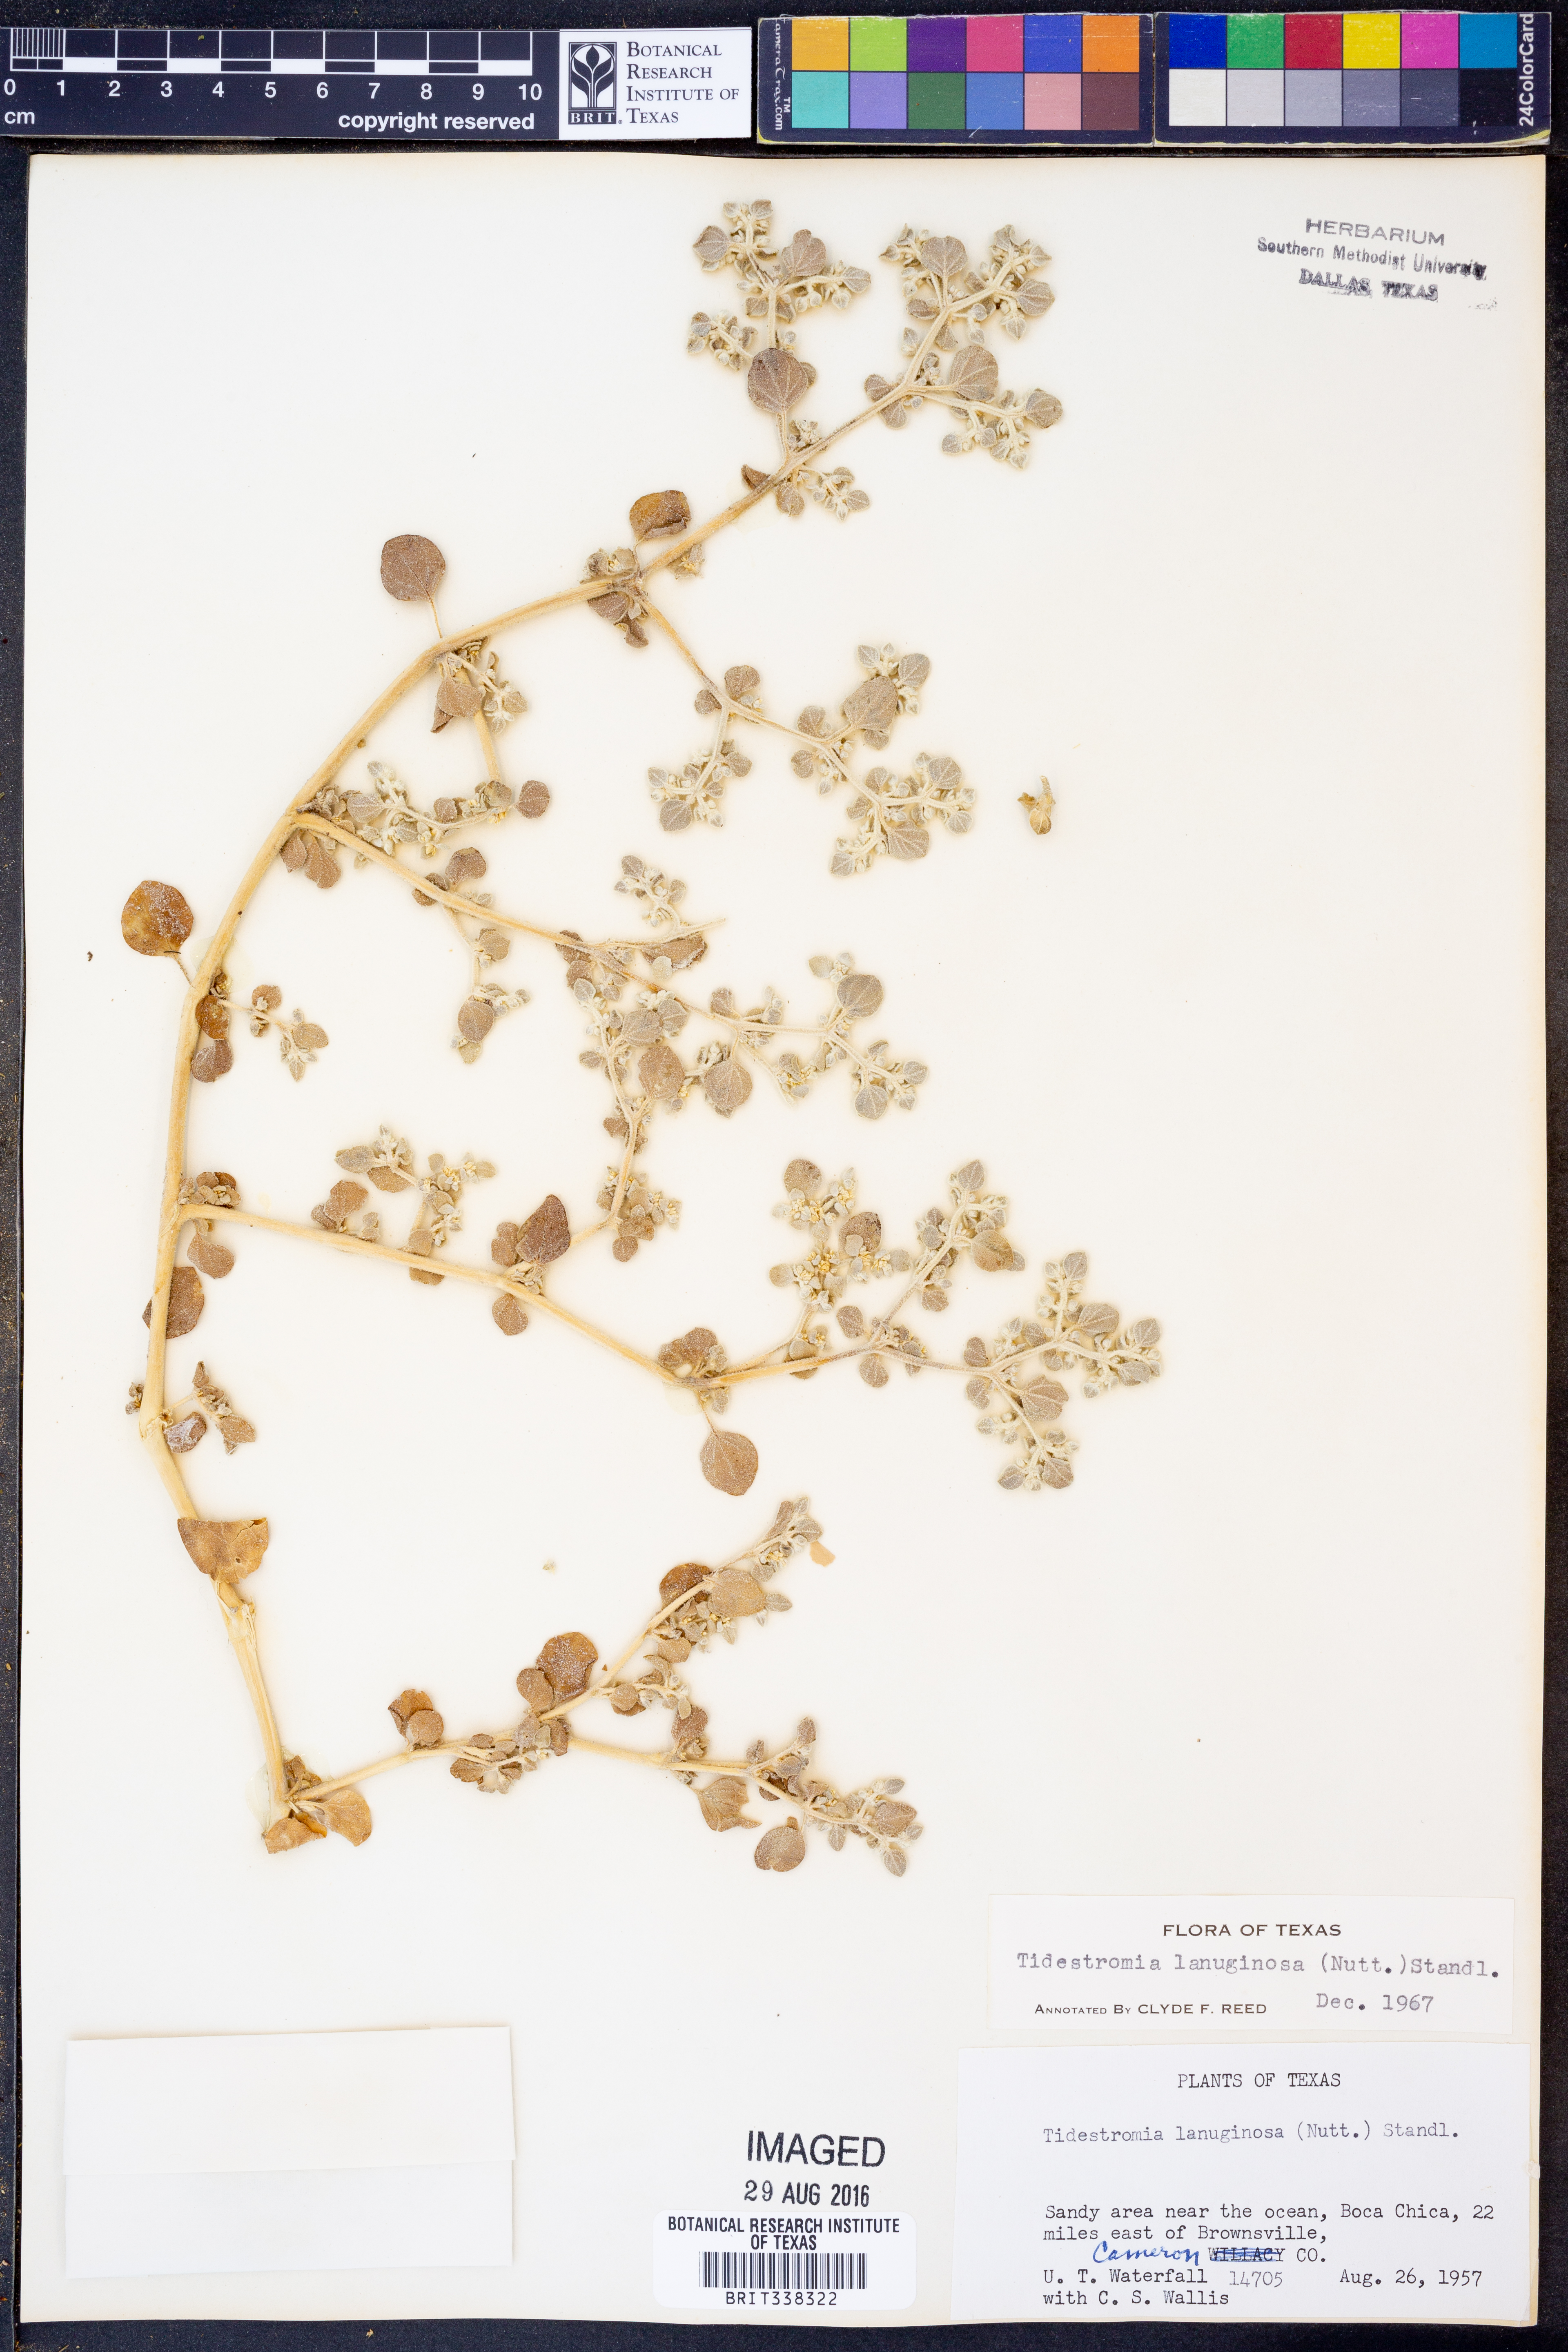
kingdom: Plantae
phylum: Tracheophyta
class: Magnoliopsida
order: Caryophyllales
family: Amaranthaceae
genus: Tidestromia
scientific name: Tidestromia lanuginosa
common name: Woolly tidestromia
